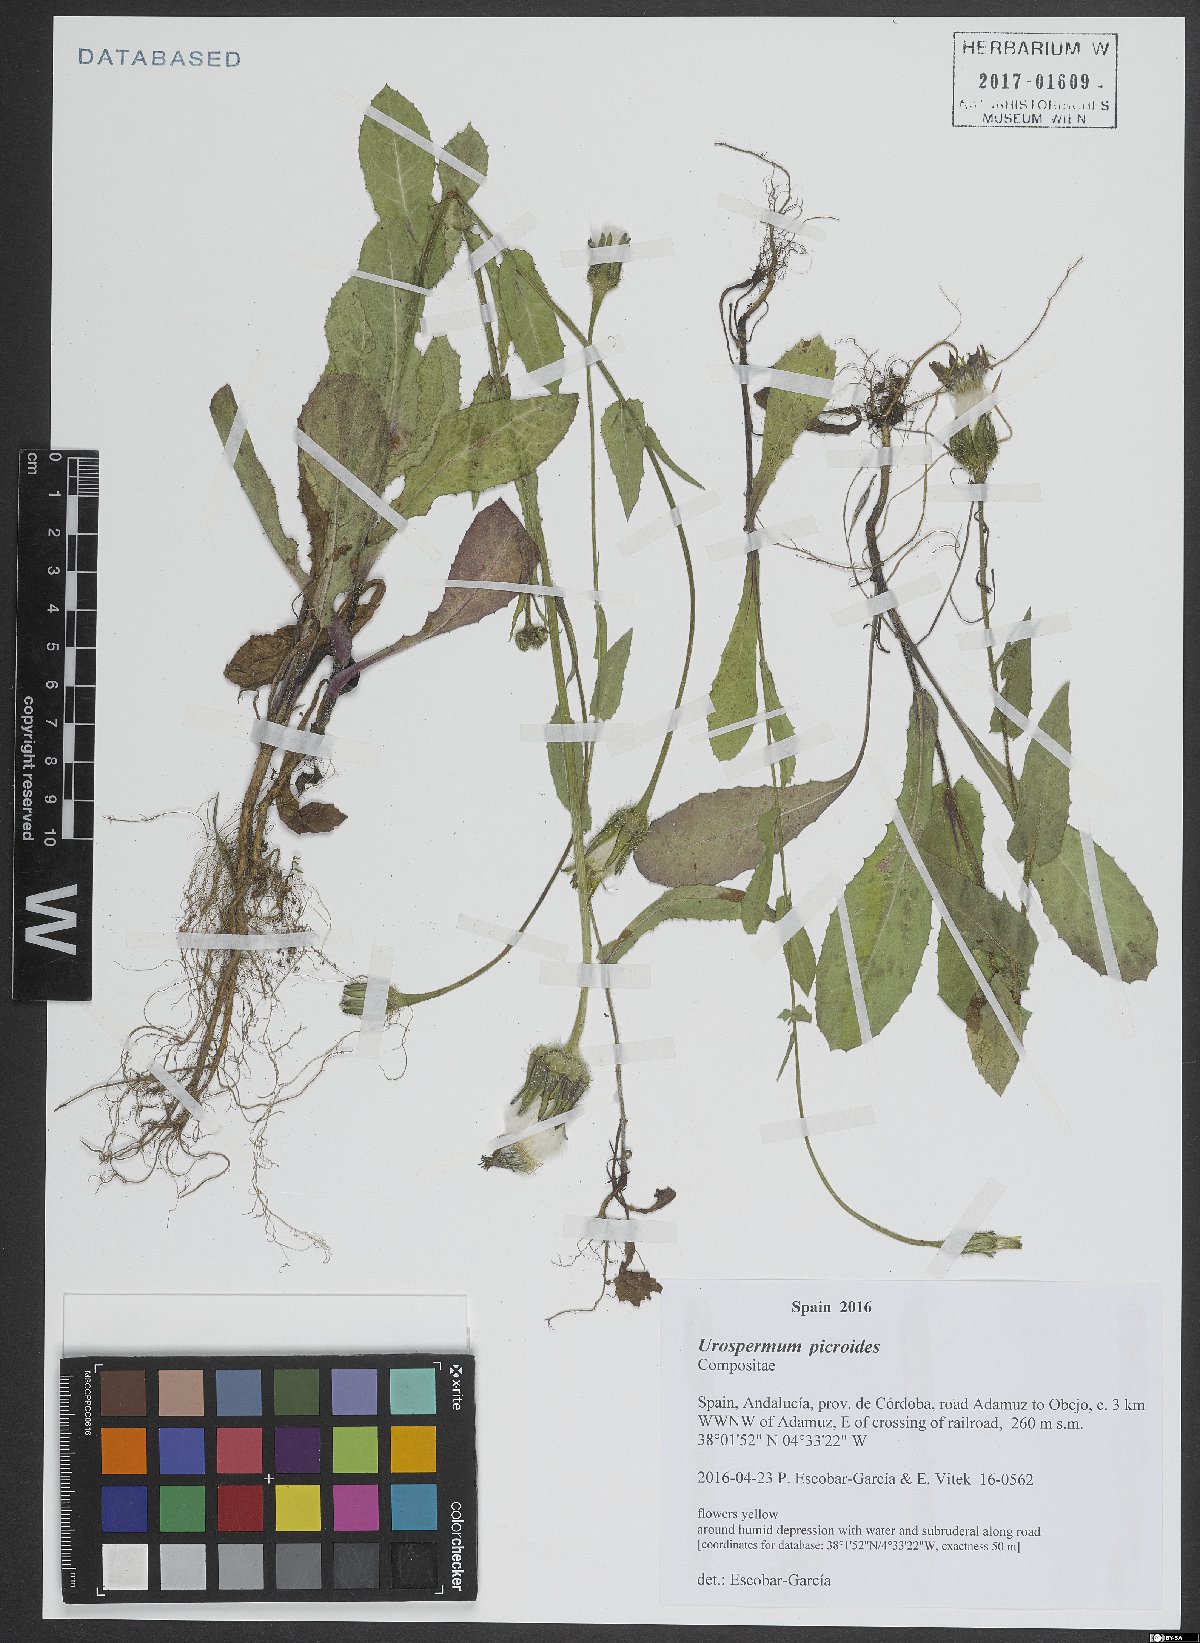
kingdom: Plantae
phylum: Tracheophyta
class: Magnoliopsida
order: Asterales
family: Asteraceae
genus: Urospermum
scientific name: Urospermum picroides
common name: False hawkbit
